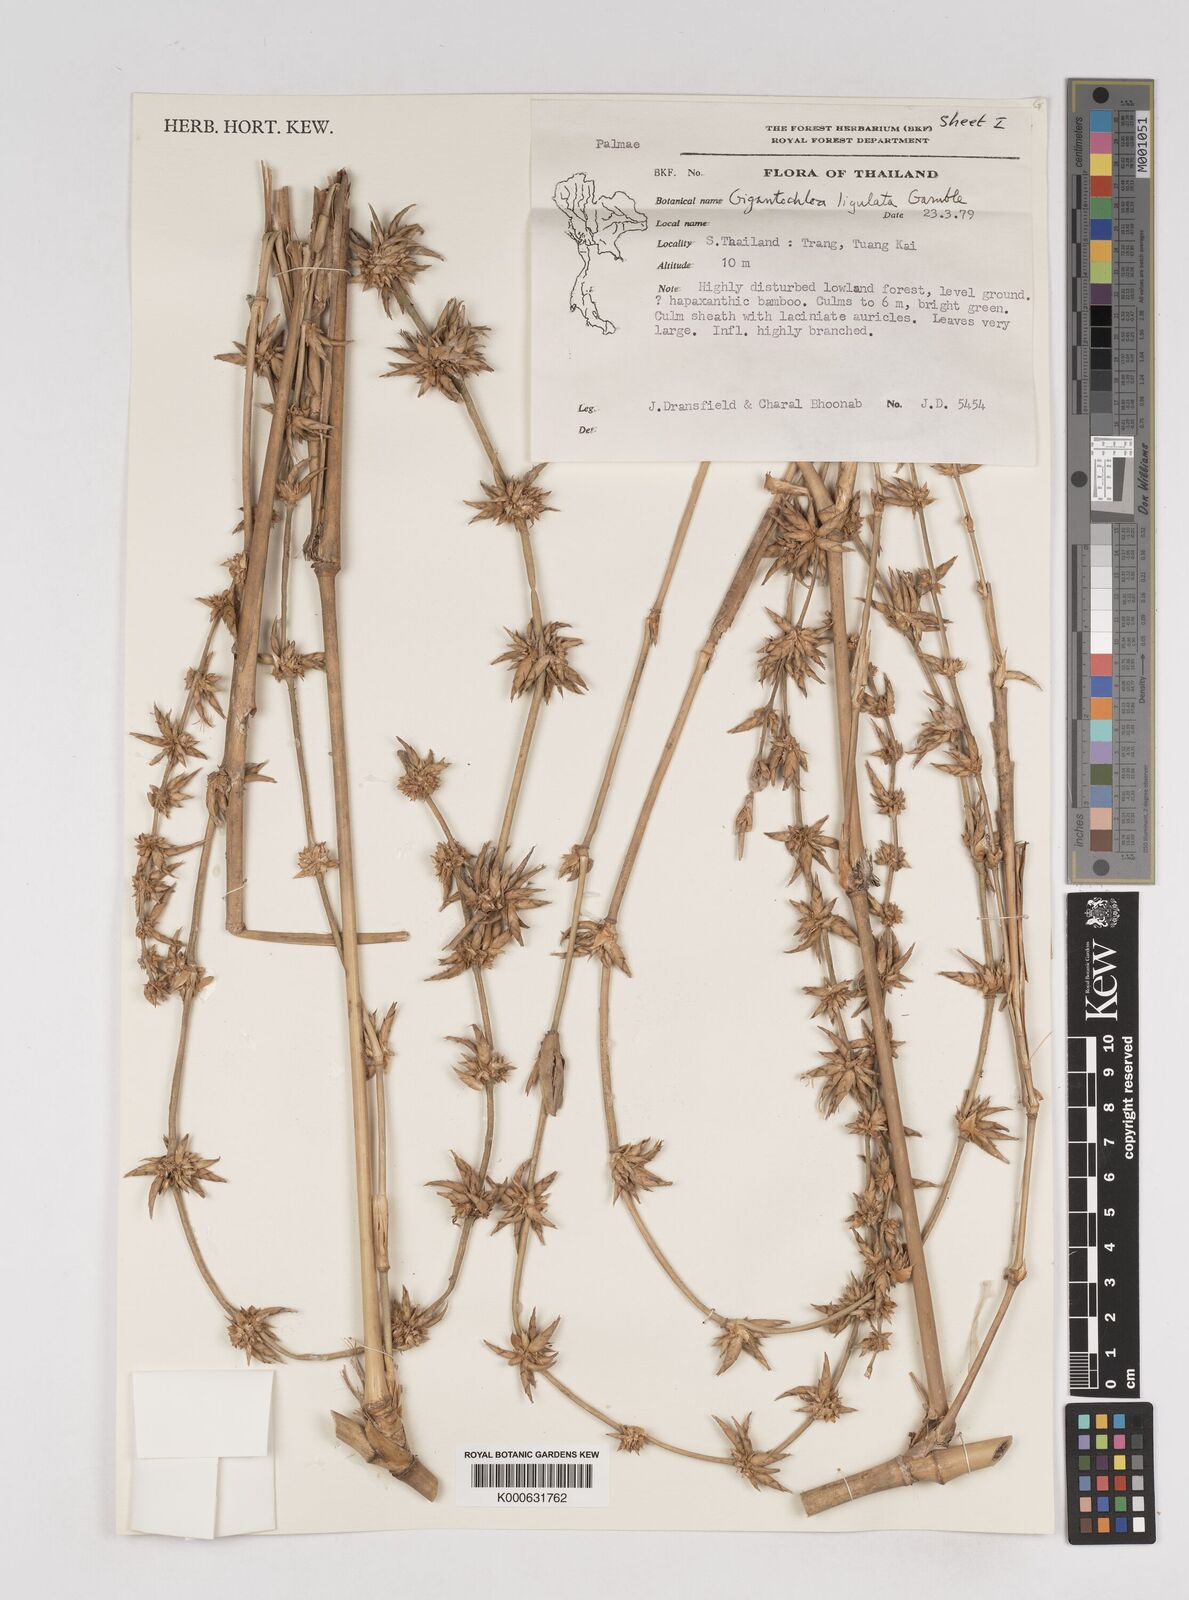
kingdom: Plantae
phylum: Tracheophyta
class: Liliopsida
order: Poales
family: Poaceae
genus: Gigantochloa
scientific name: Gigantochloa ligulata
